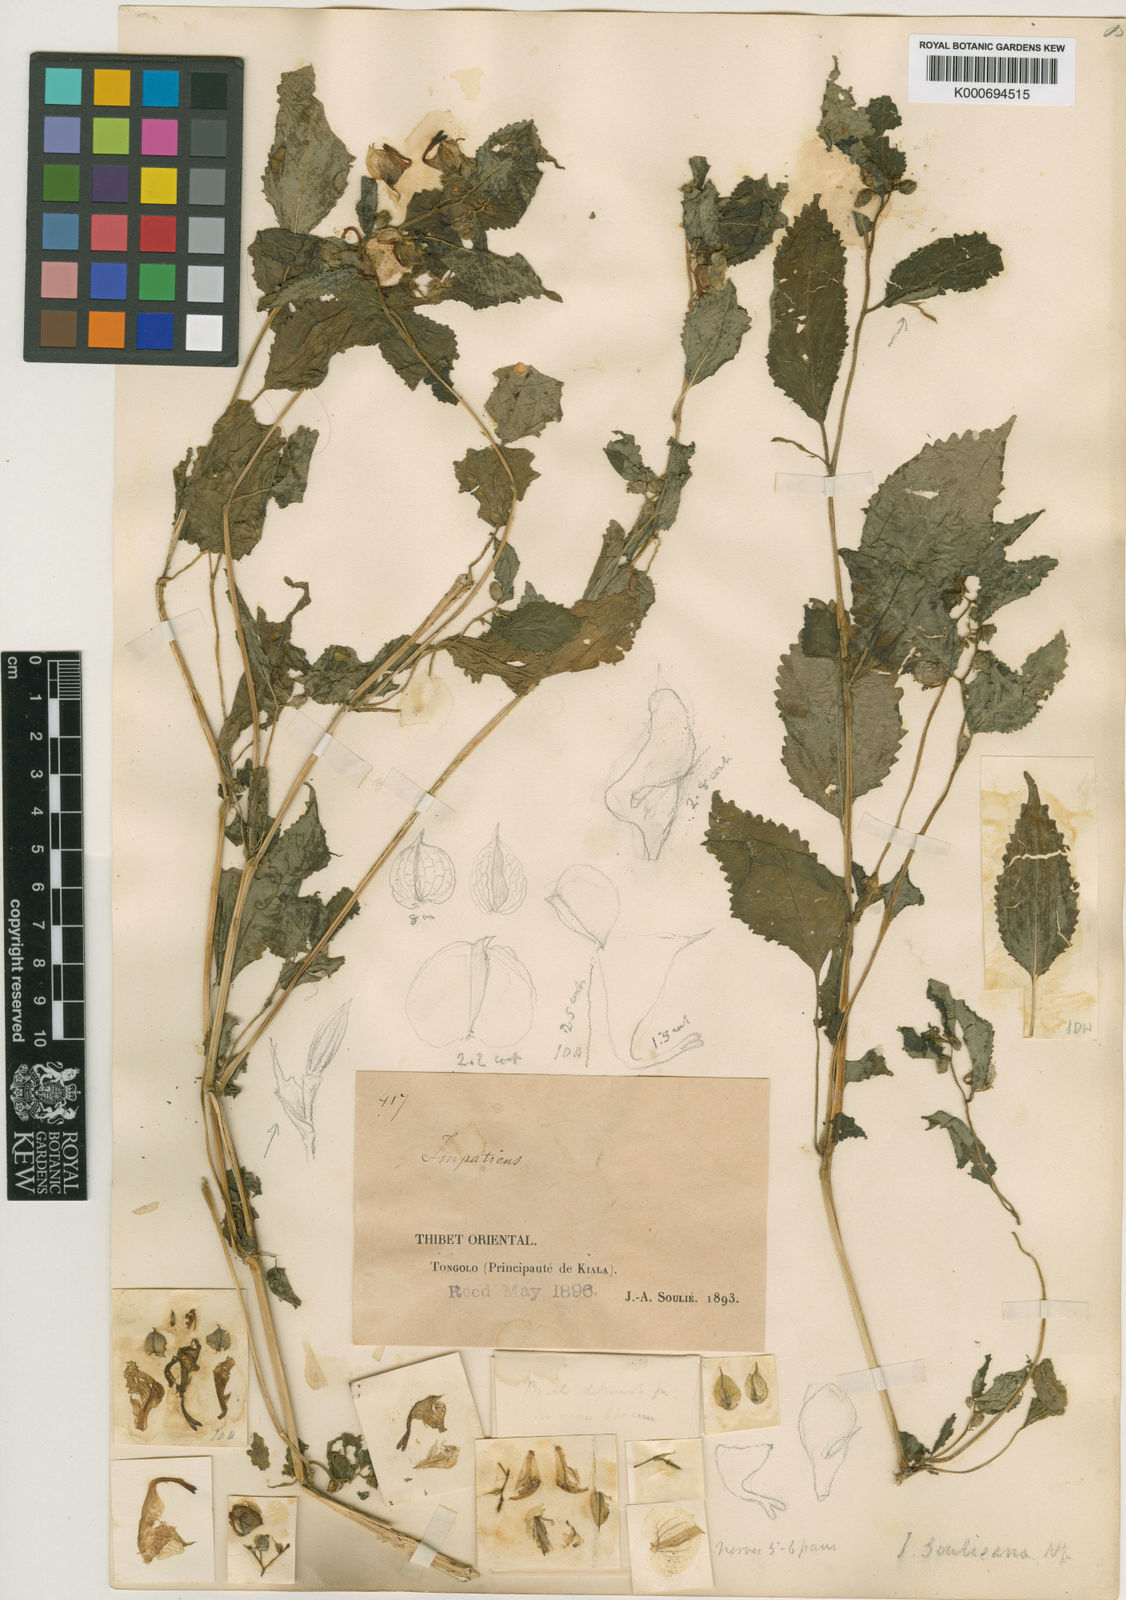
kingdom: Plantae
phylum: Tracheophyta
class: Magnoliopsida
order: Ericales
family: Balsaminaceae
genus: Impatiens
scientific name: Impatiens soulieana
